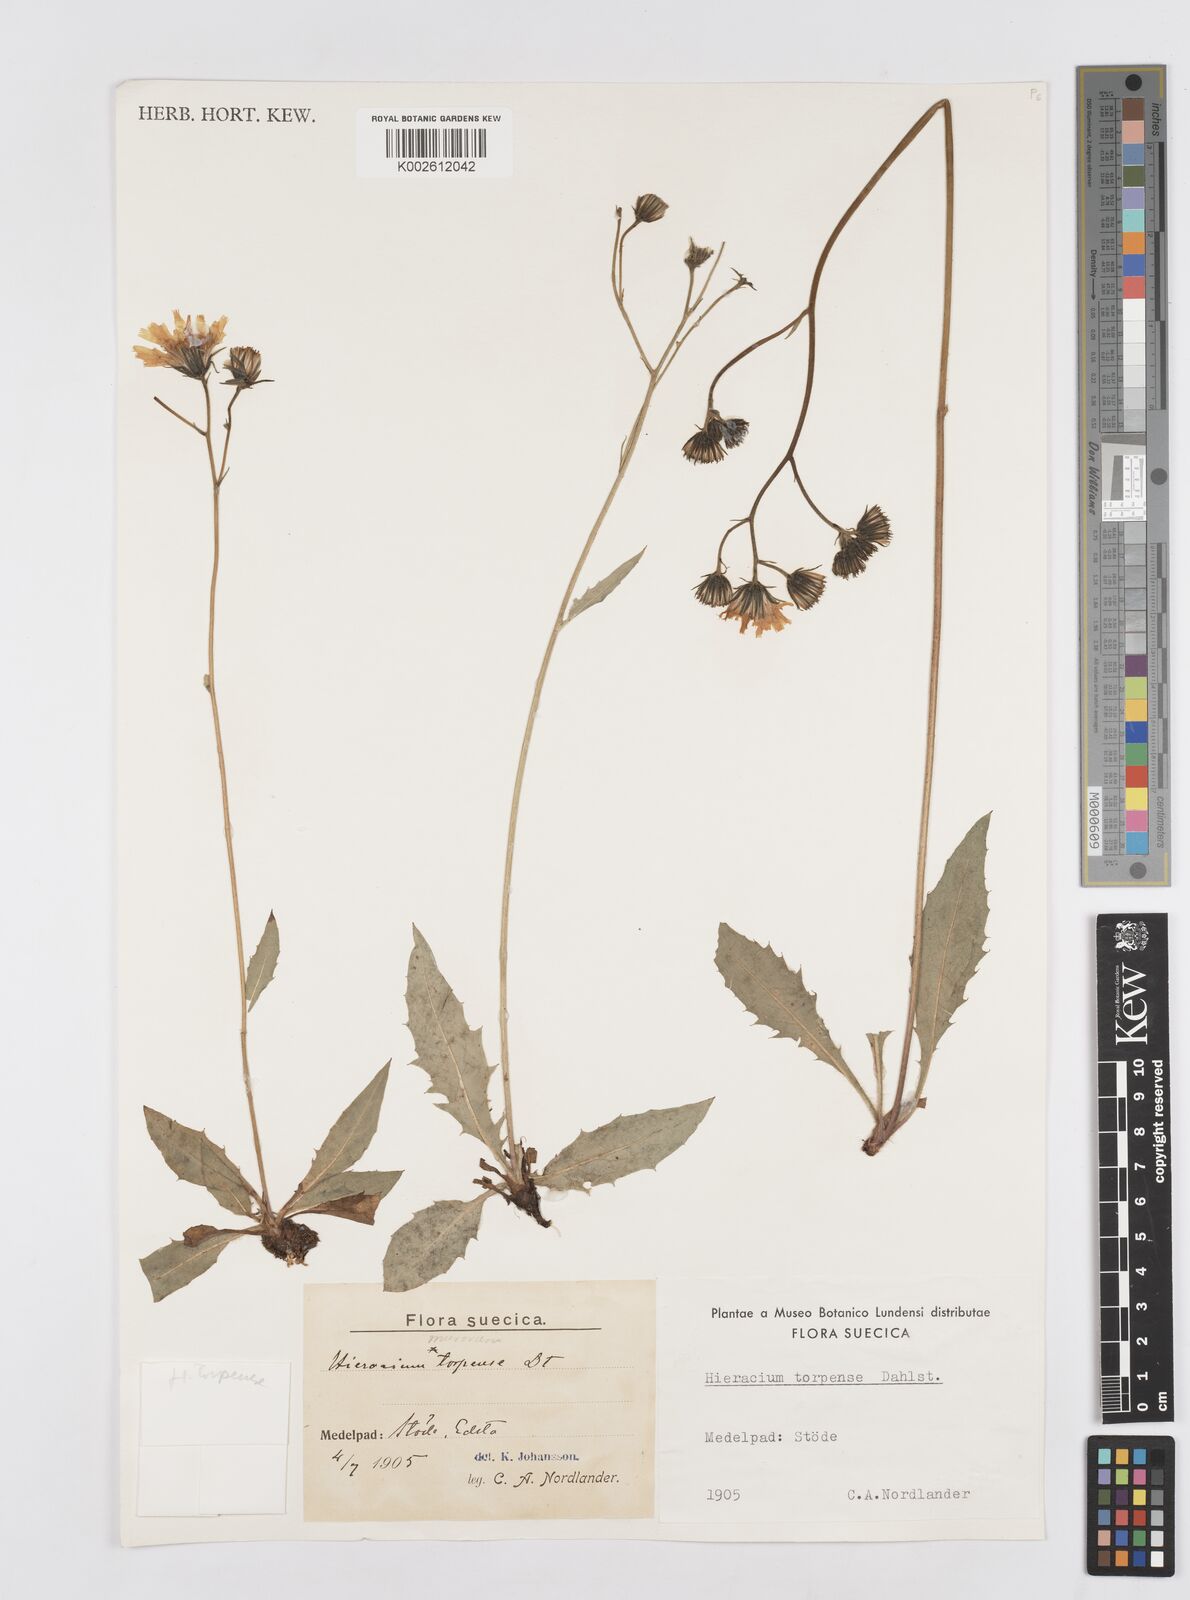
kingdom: Plantae
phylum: Tracheophyta
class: Magnoliopsida
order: Asterales
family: Asteraceae
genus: Hieracium
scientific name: Hieracium coniops
